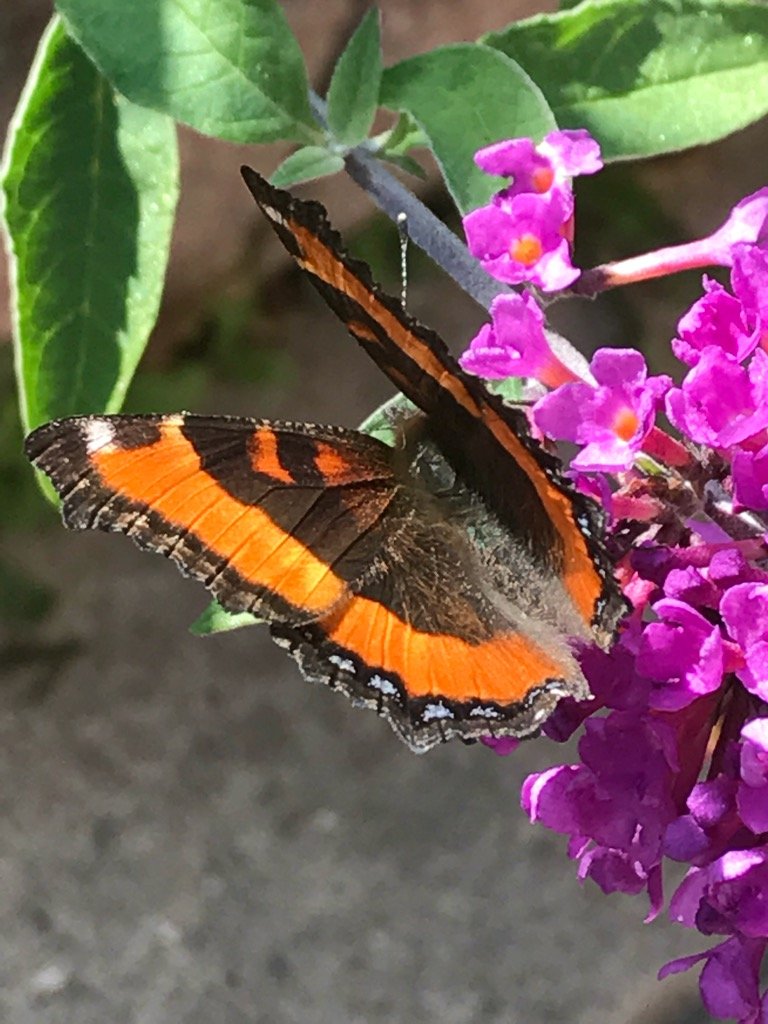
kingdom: Animalia
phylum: Arthropoda
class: Insecta
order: Lepidoptera
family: Nymphalidae
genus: Aglais
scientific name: Aglais milberti
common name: Milbert's Tortoiseshell
